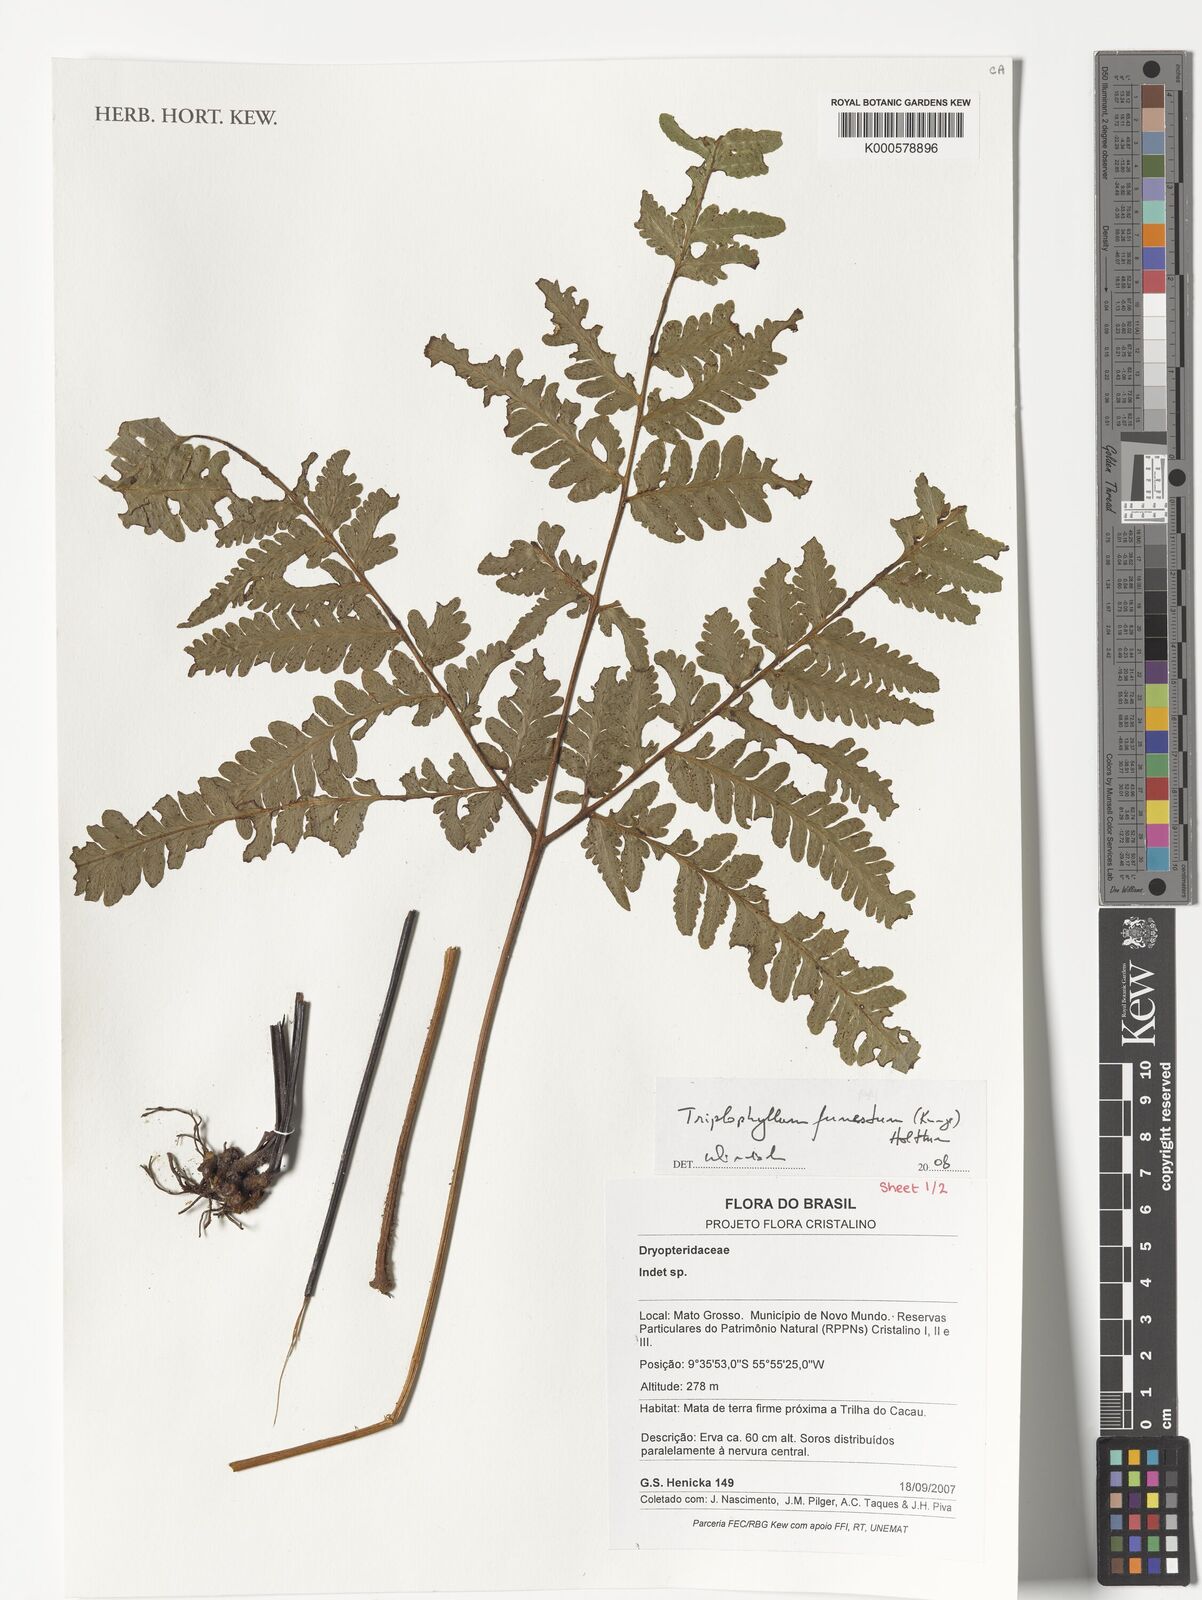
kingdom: Plantae
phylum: Tracheophyta
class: Polypodiopsida
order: Polypodiales
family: Tectariaceae
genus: Triplophyllum
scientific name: Triplophyllum funestum
